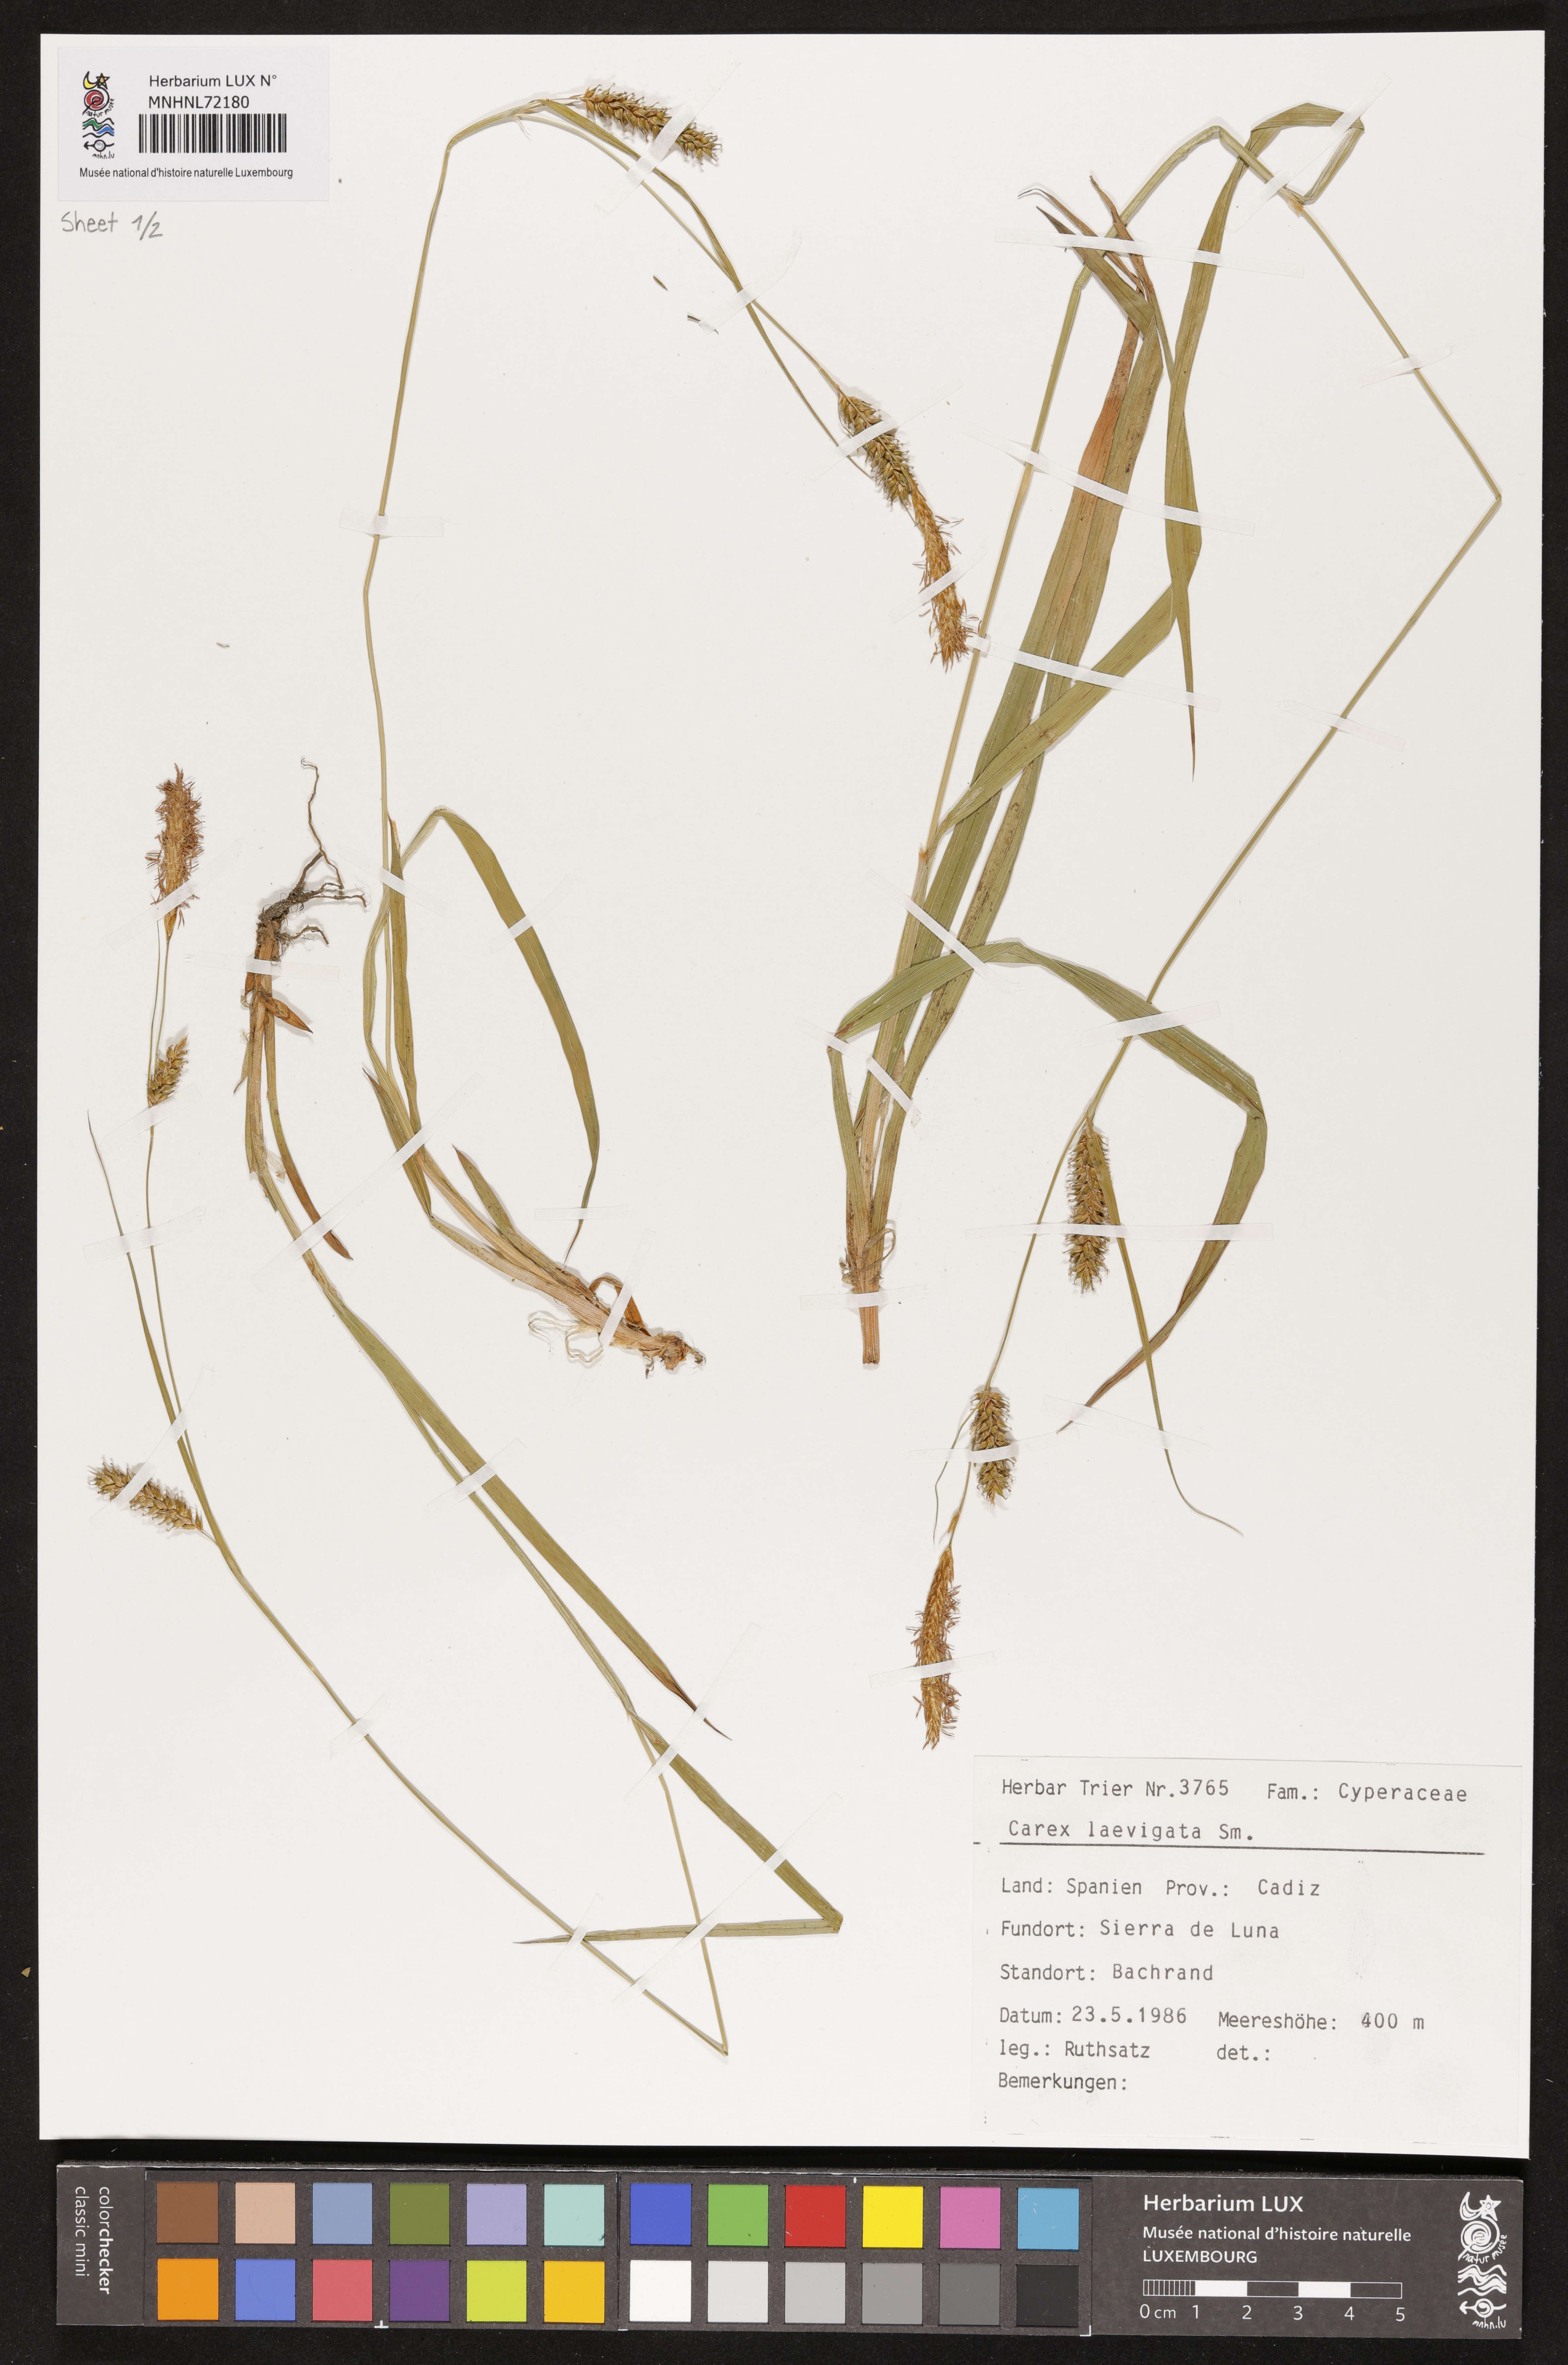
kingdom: Plantae
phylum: Tracheophyta
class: Liliopsida
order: Poales
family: Cyperaceae
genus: Carex
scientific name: Carex laevigata
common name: Smooth-stalked sedge
